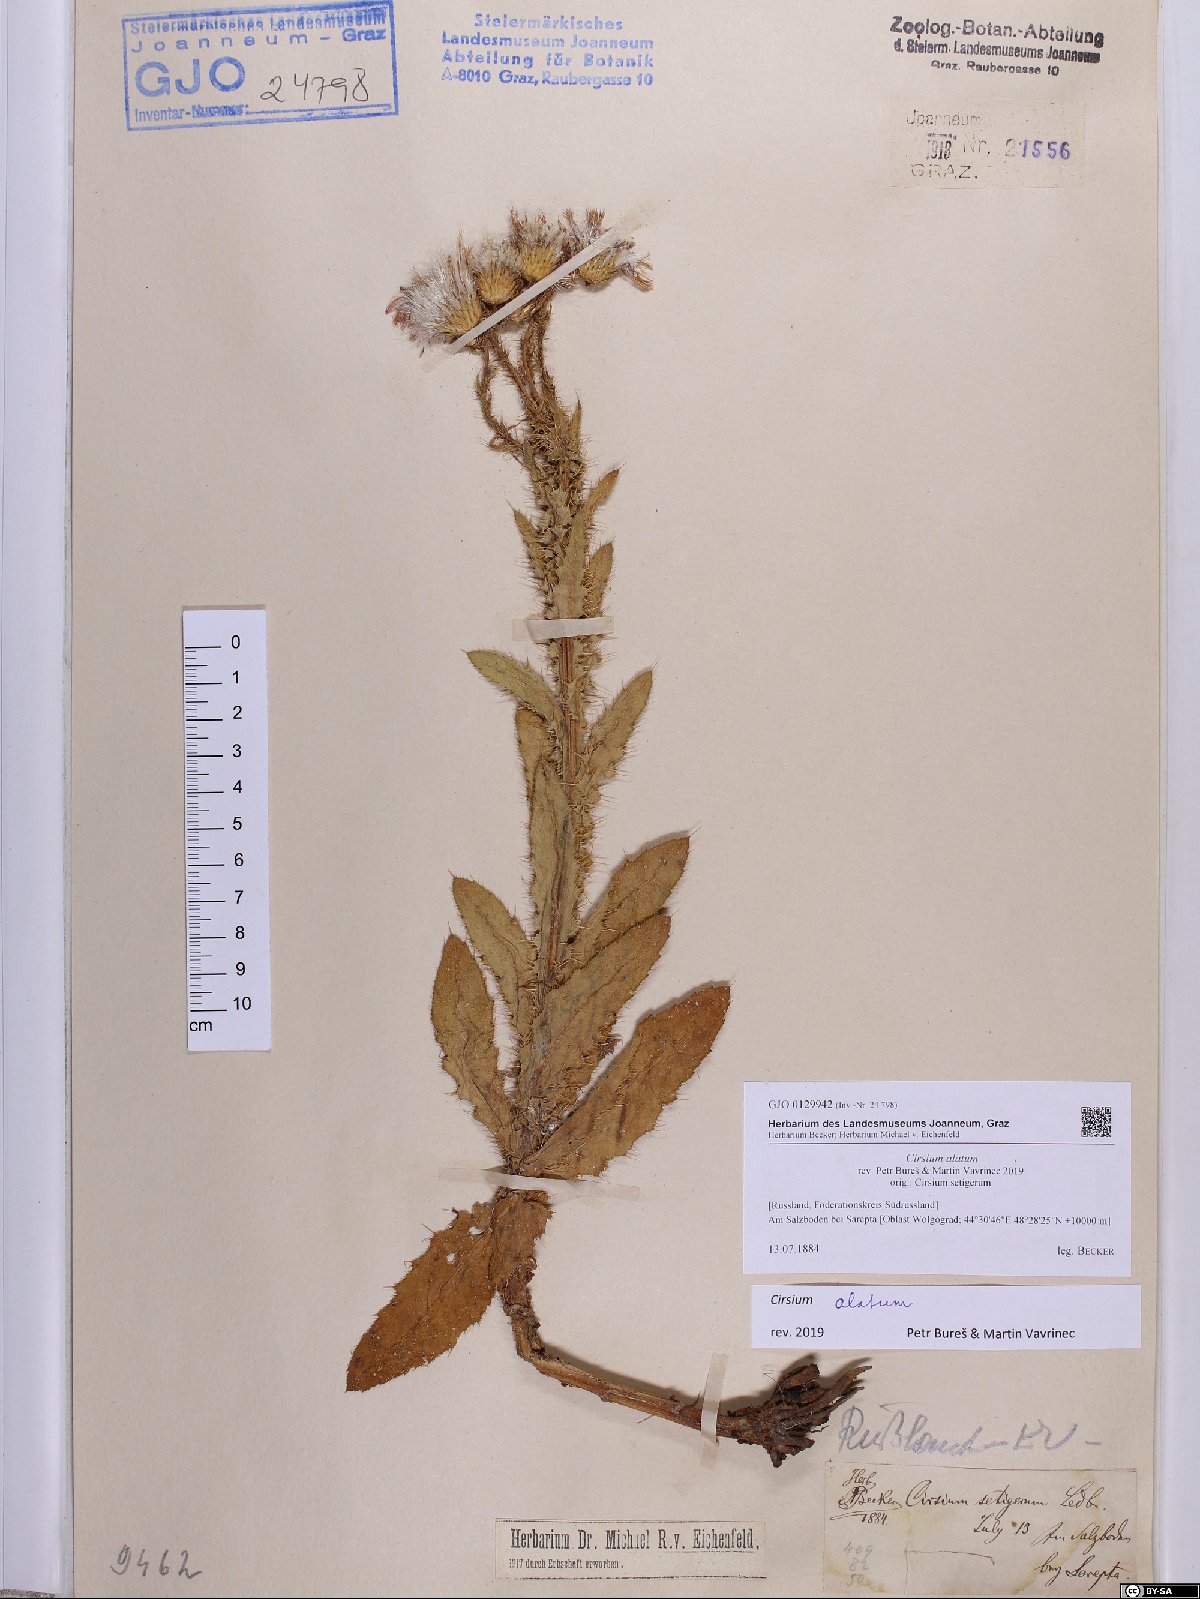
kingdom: Plantae
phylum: Tracheophyta
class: Magnoliopsida
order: Asterales
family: Asteraceae
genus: Cirsium
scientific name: Cirsium alatum
